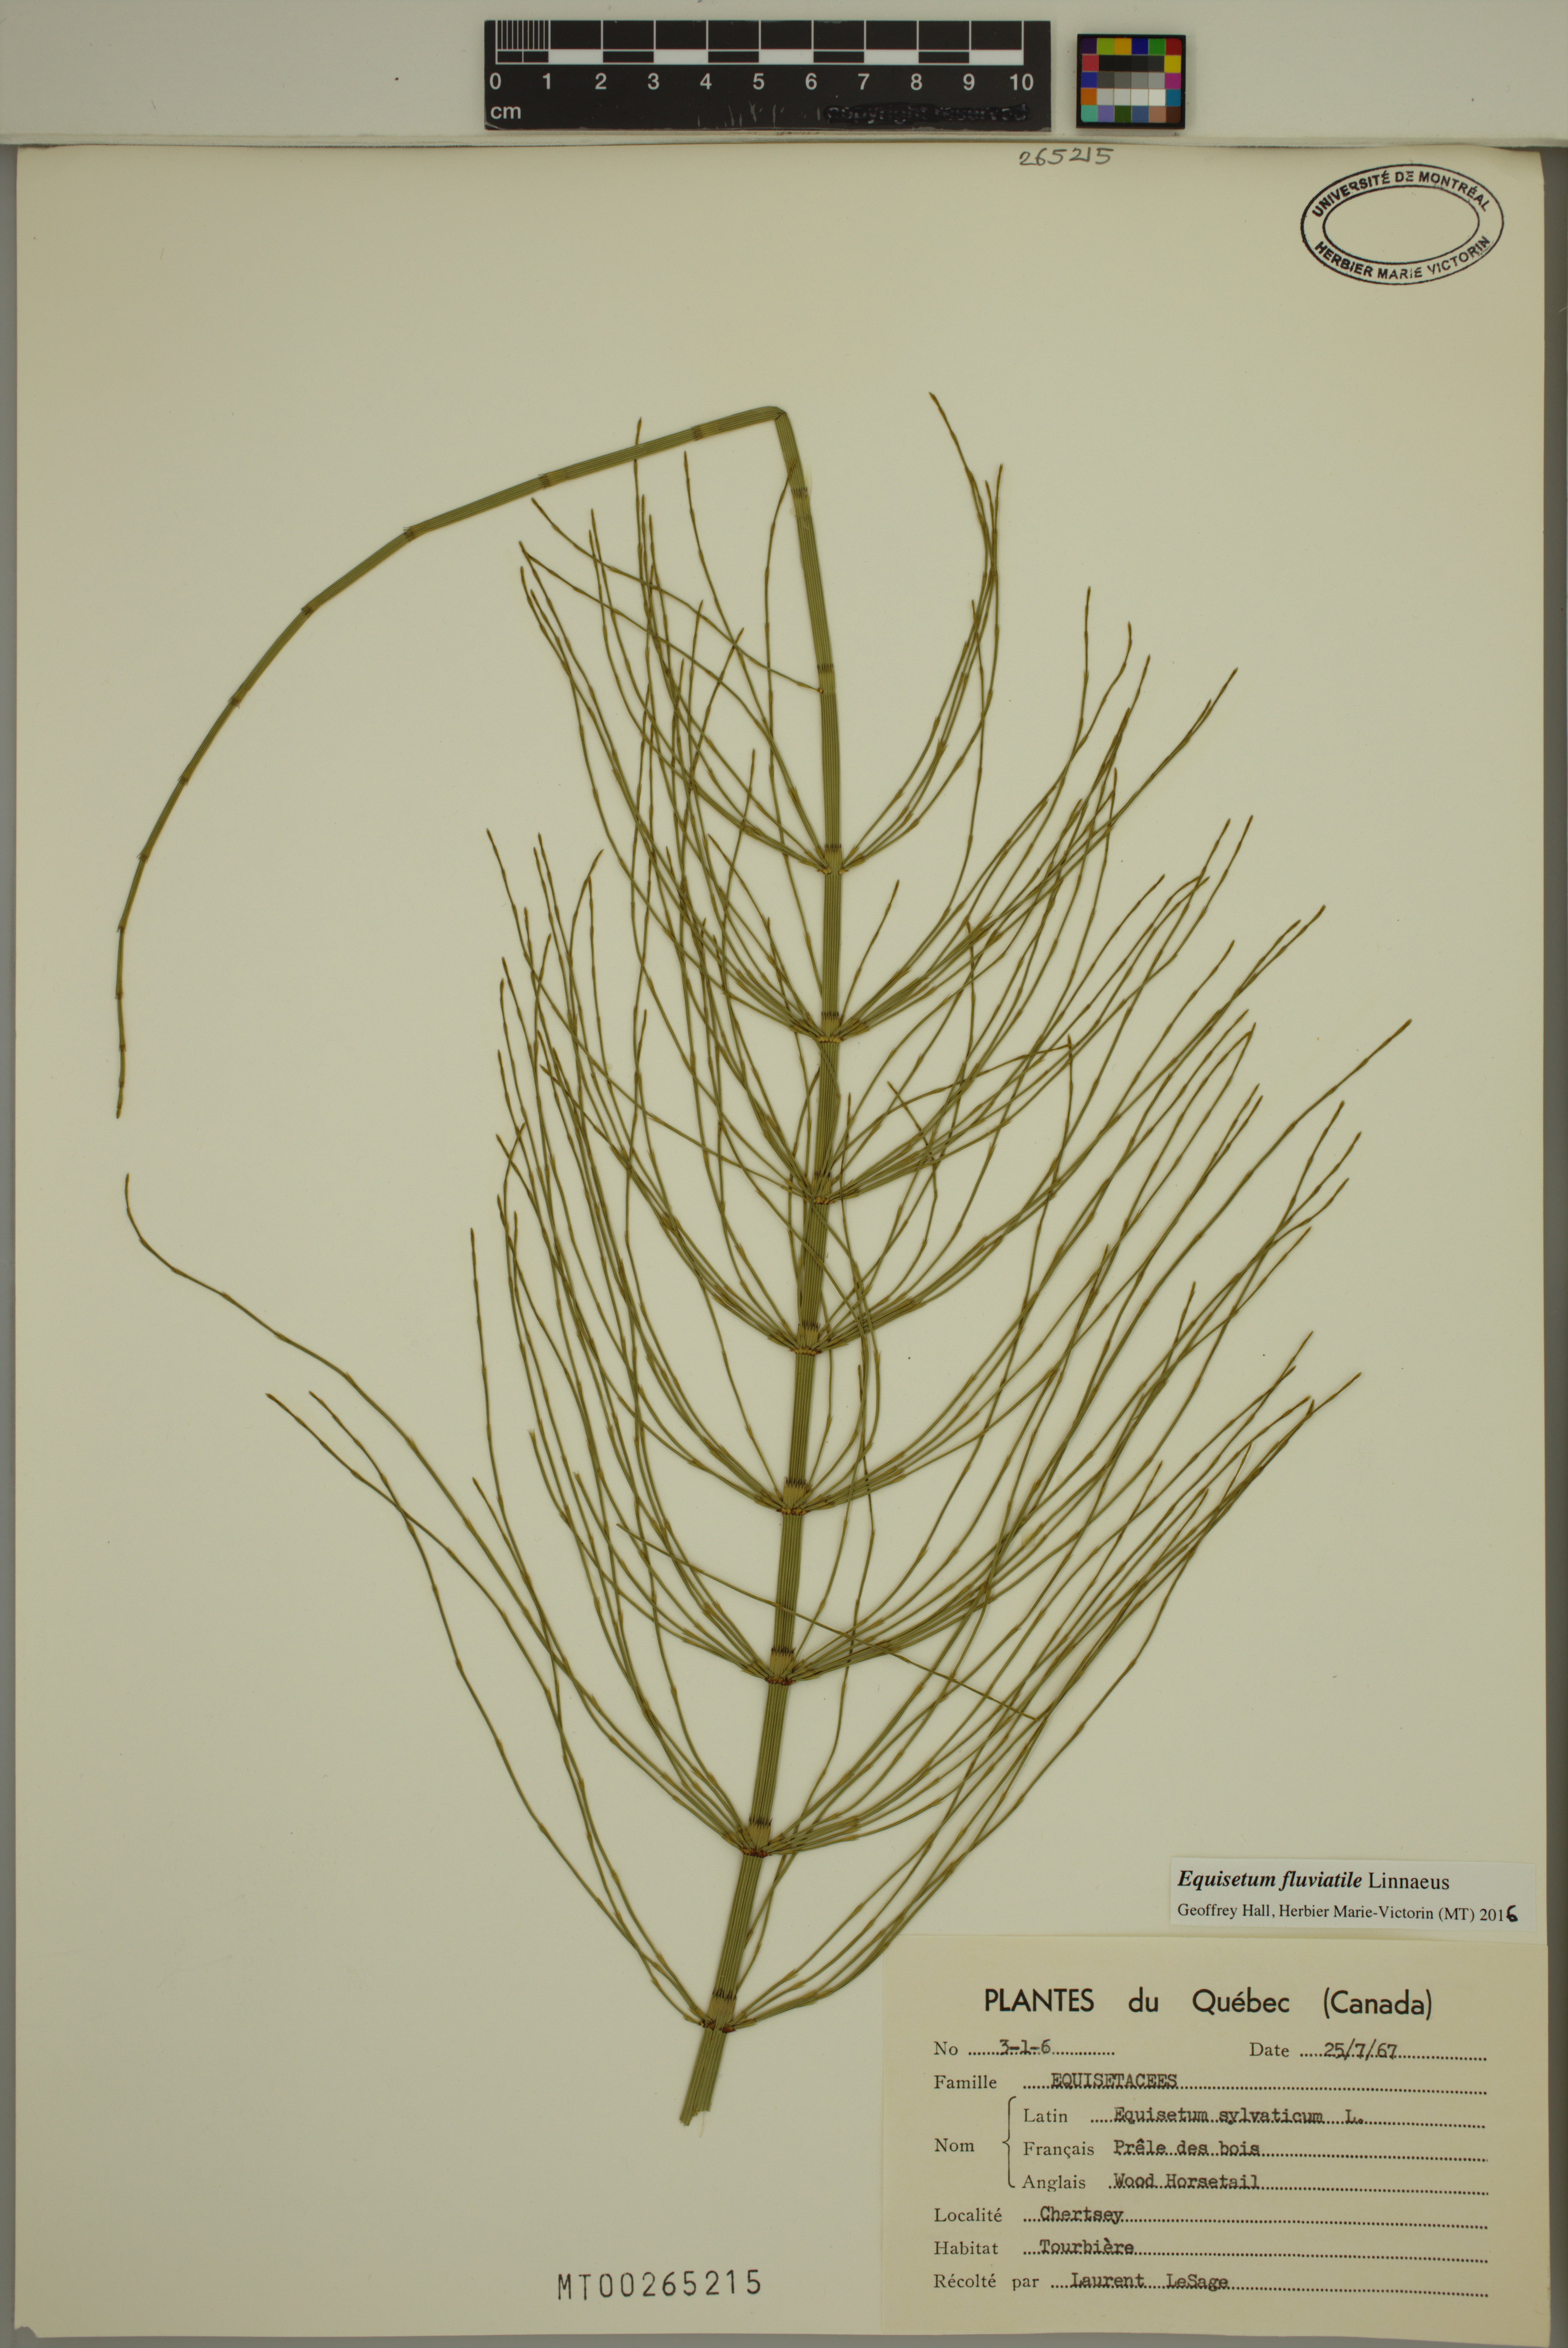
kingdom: Plantae
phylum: Tracheophyta
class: Polypodiopsida
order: Equisetales
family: Equisetaceae
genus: Equisetum
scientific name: Equisetum fluviatile
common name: Water horsetail
